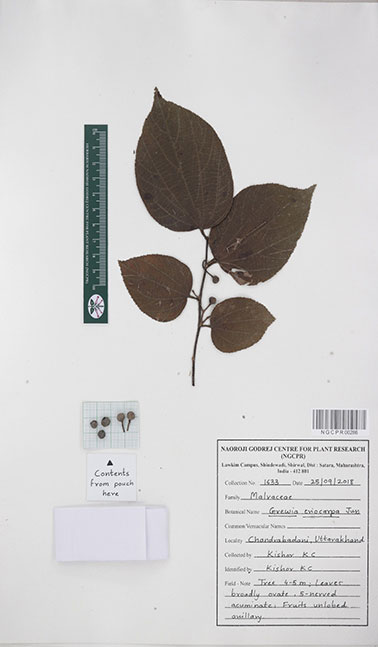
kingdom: Plantae
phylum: Tracheophyta
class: Magnoliopsida
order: Malvales
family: Malvaceae
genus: Grewia
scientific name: Grewia eriocarpa
